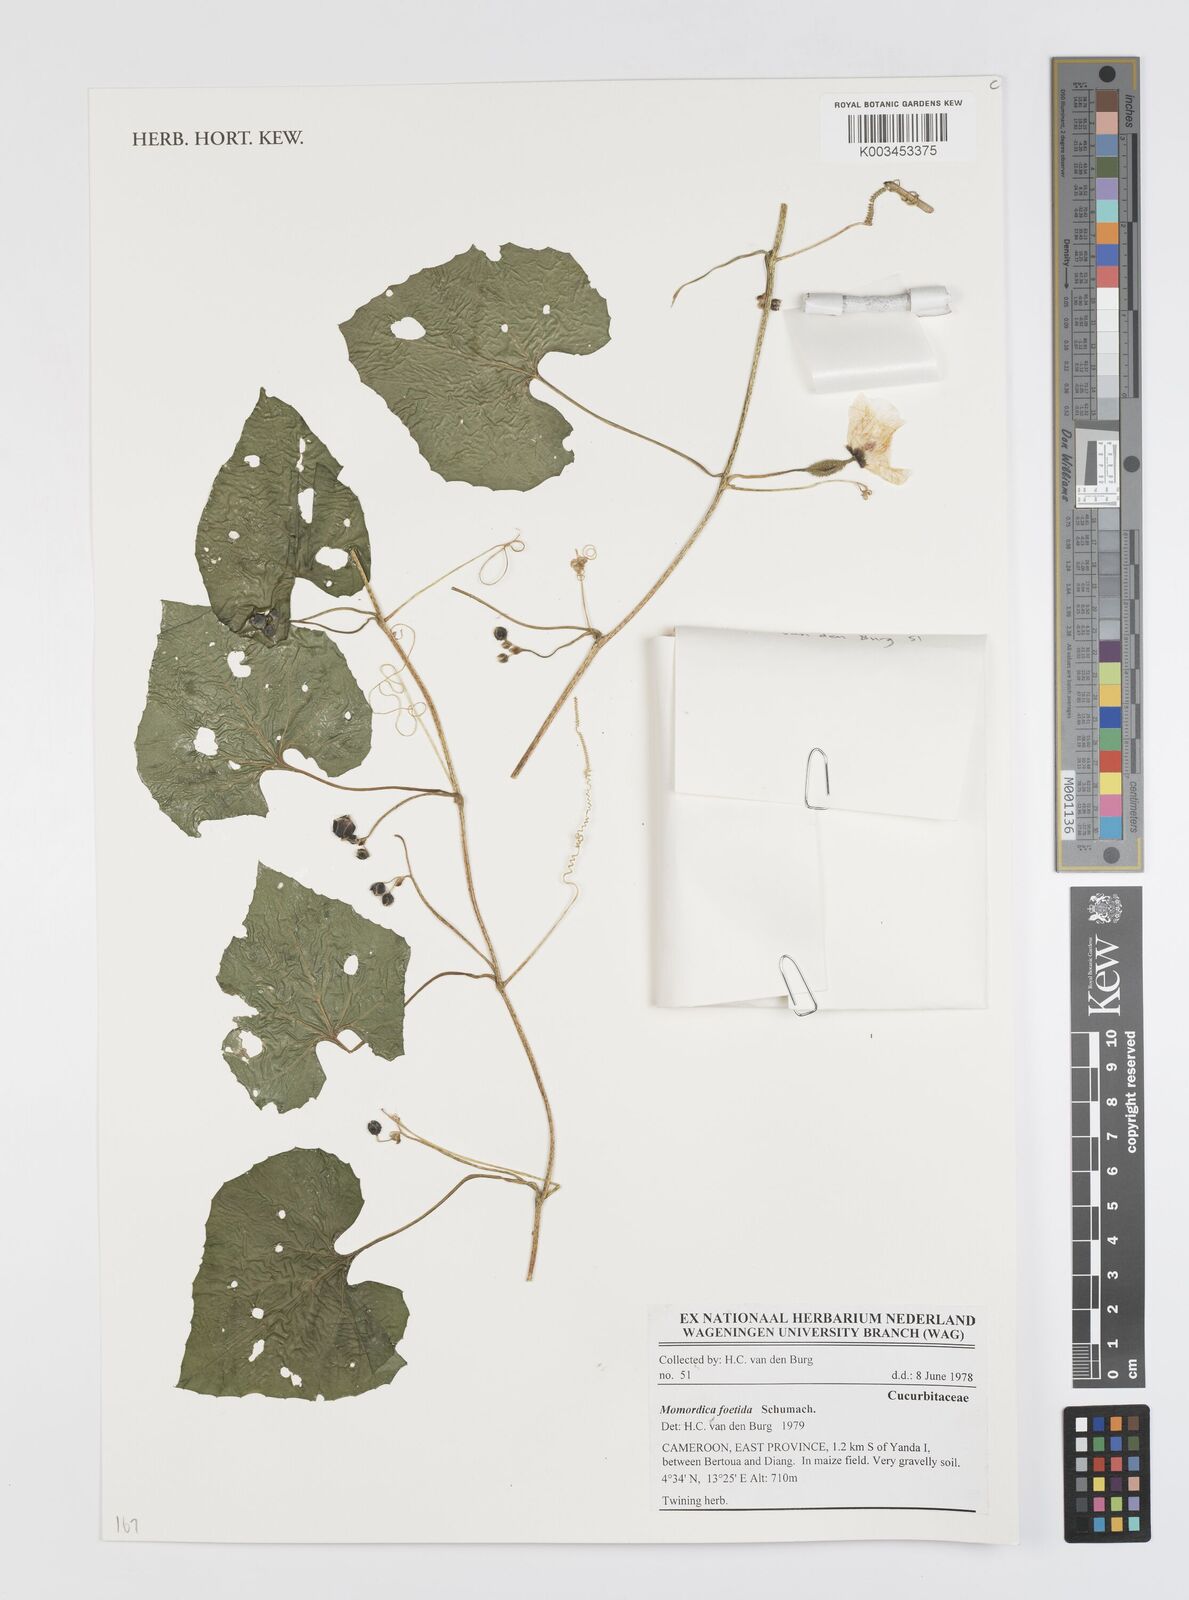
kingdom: Plantae
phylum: Tracheophyta
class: Magnoliopsida
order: Cucurbitales
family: Cucurbitaceae
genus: Momordica
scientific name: Momordica foetida
